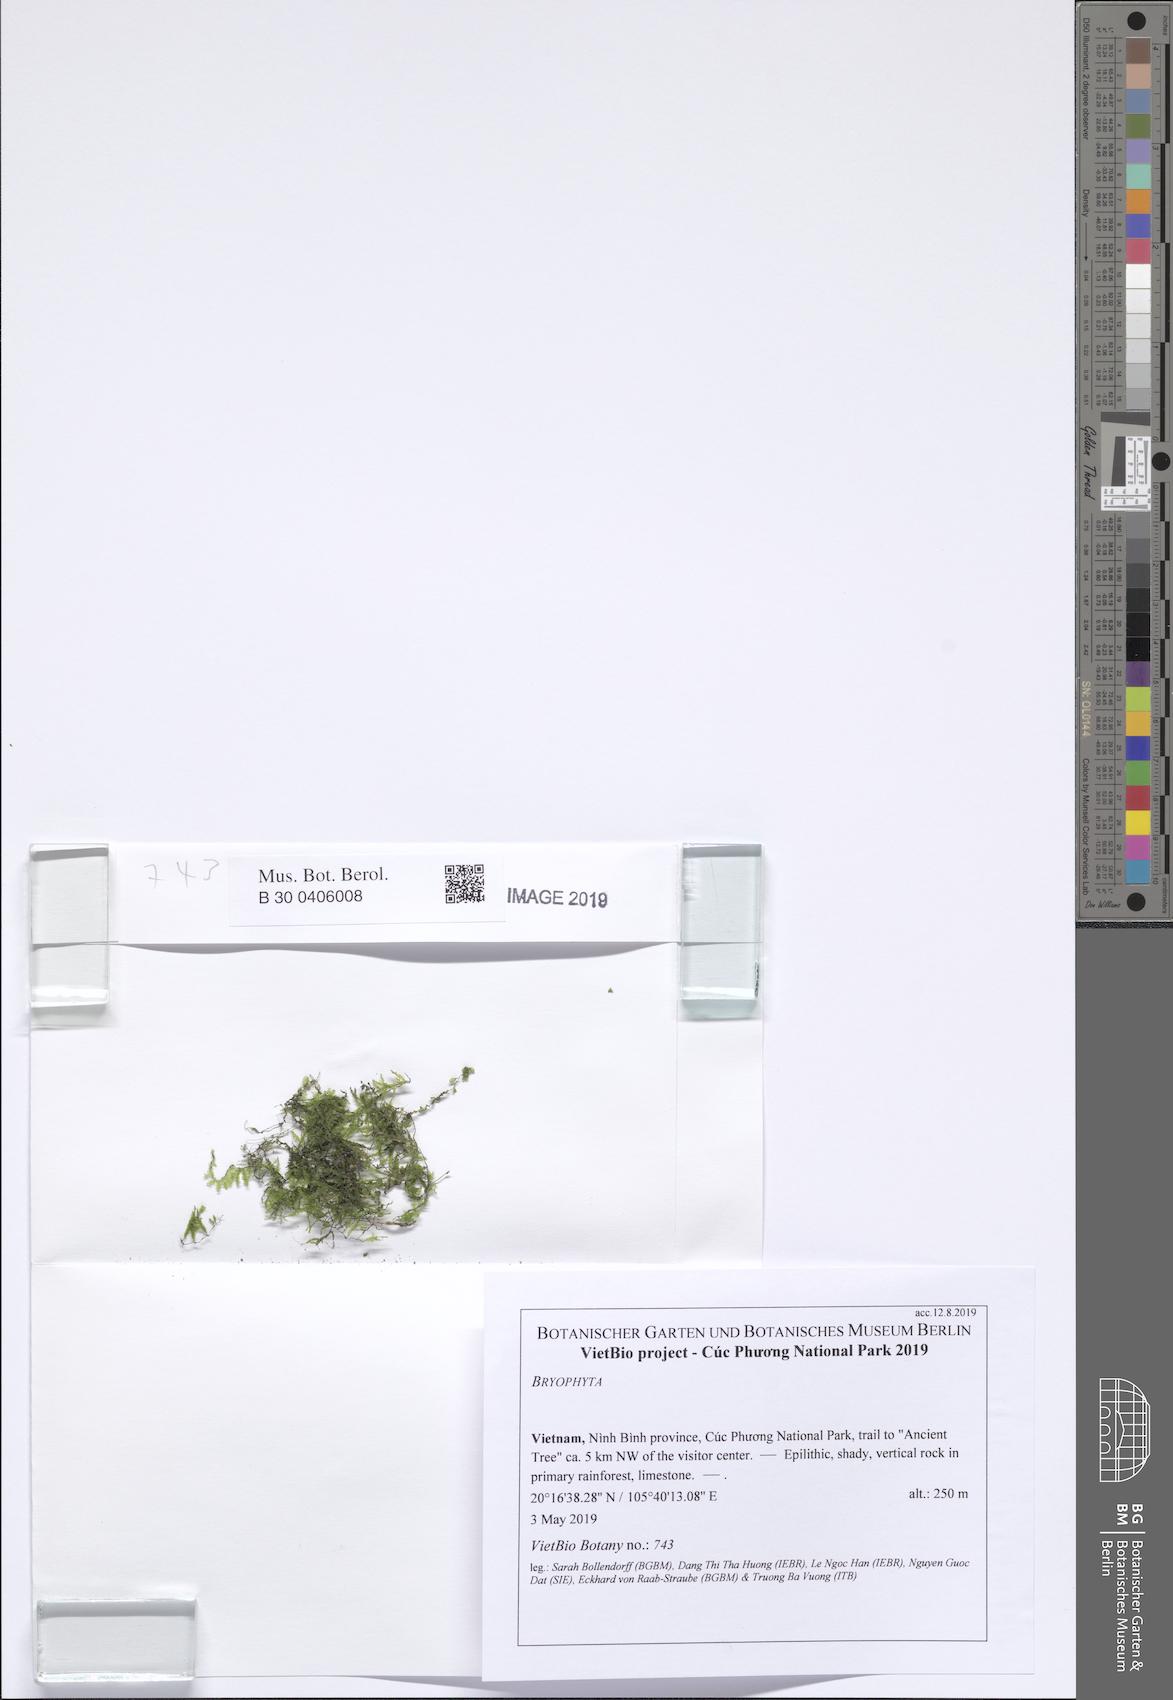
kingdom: Plantae
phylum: Bryophyta
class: Bryopsida
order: Hypnales
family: Neckeraceae
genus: Circulifolium
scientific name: Circulifolium exiguum
